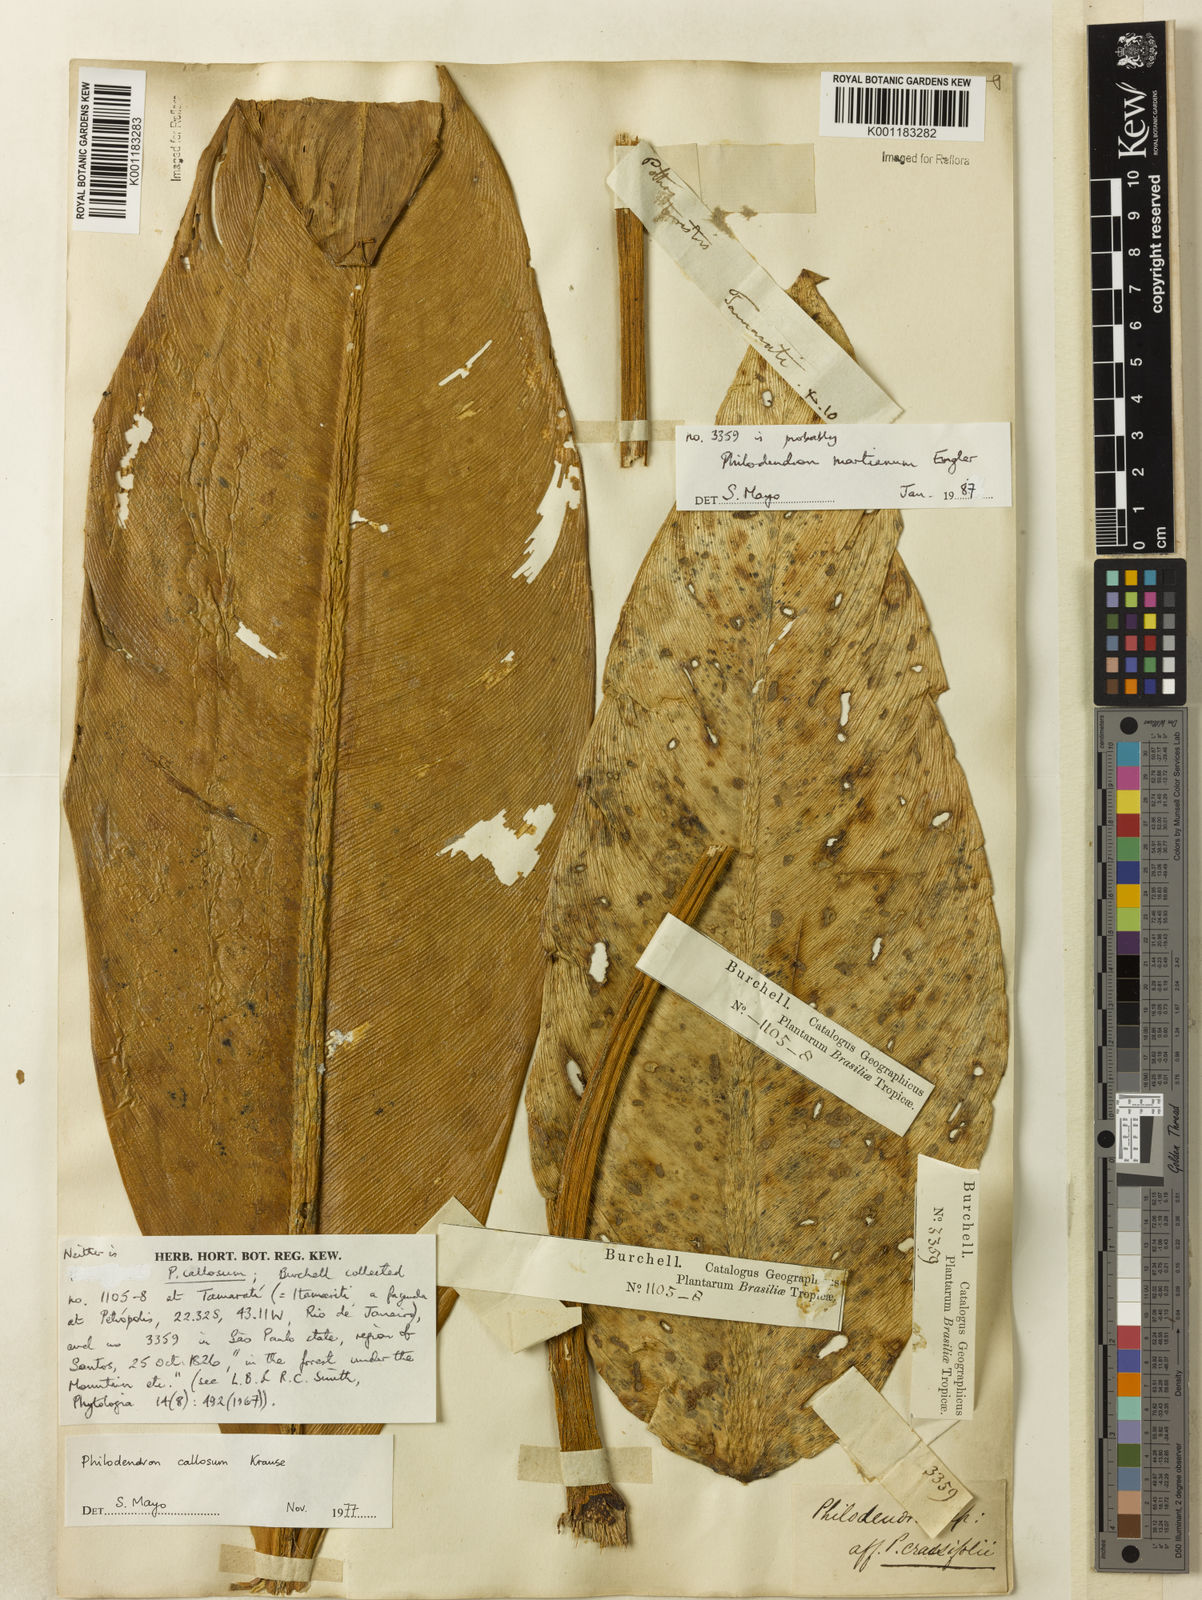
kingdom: Plantae
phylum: Tracheophyta
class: Liliopsida
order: Alismatales
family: Araceae
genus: Philodendron
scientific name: Philodendron martianum
